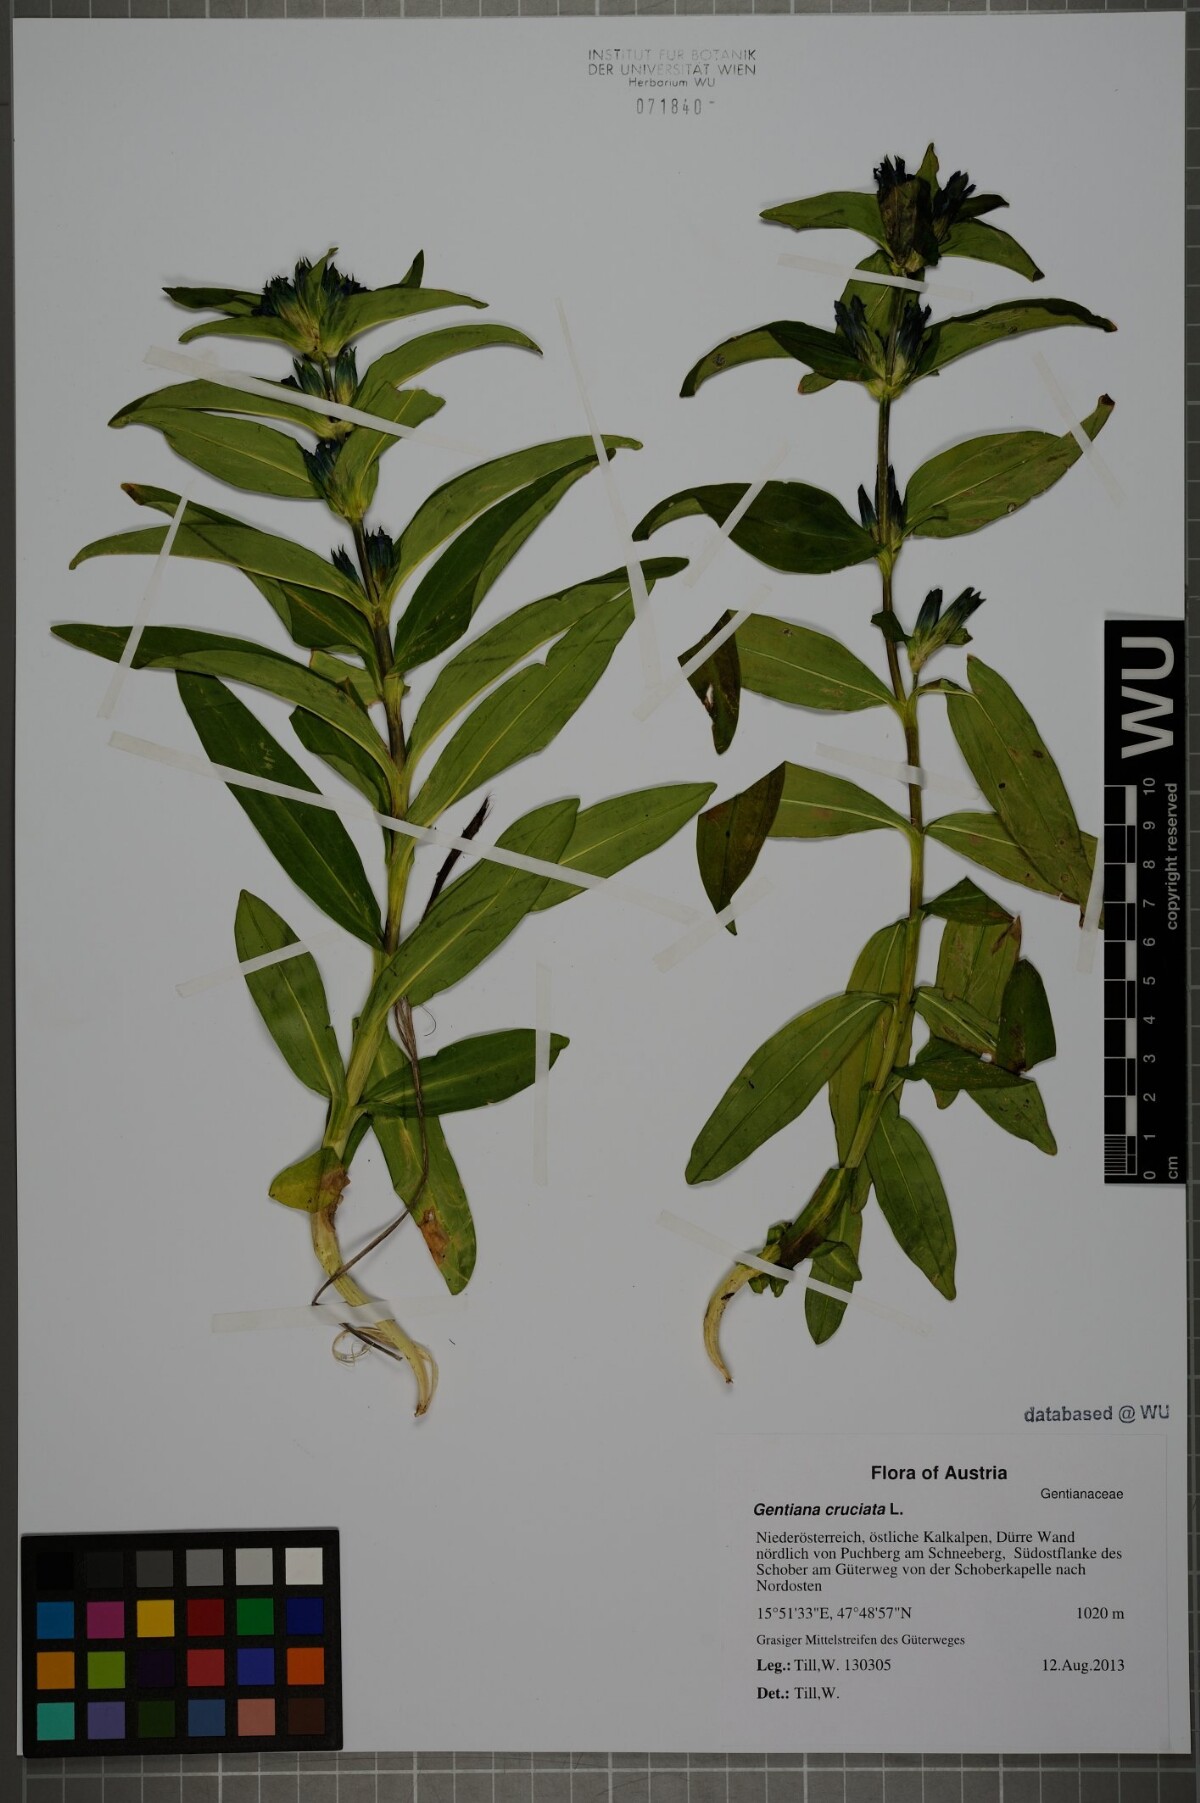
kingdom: Plantae
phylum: Tracheophyta
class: Magnoliopsida
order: Gentianales
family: Gentianaceae
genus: Gentiana
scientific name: Gentiana cruciata
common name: Cross gentian
